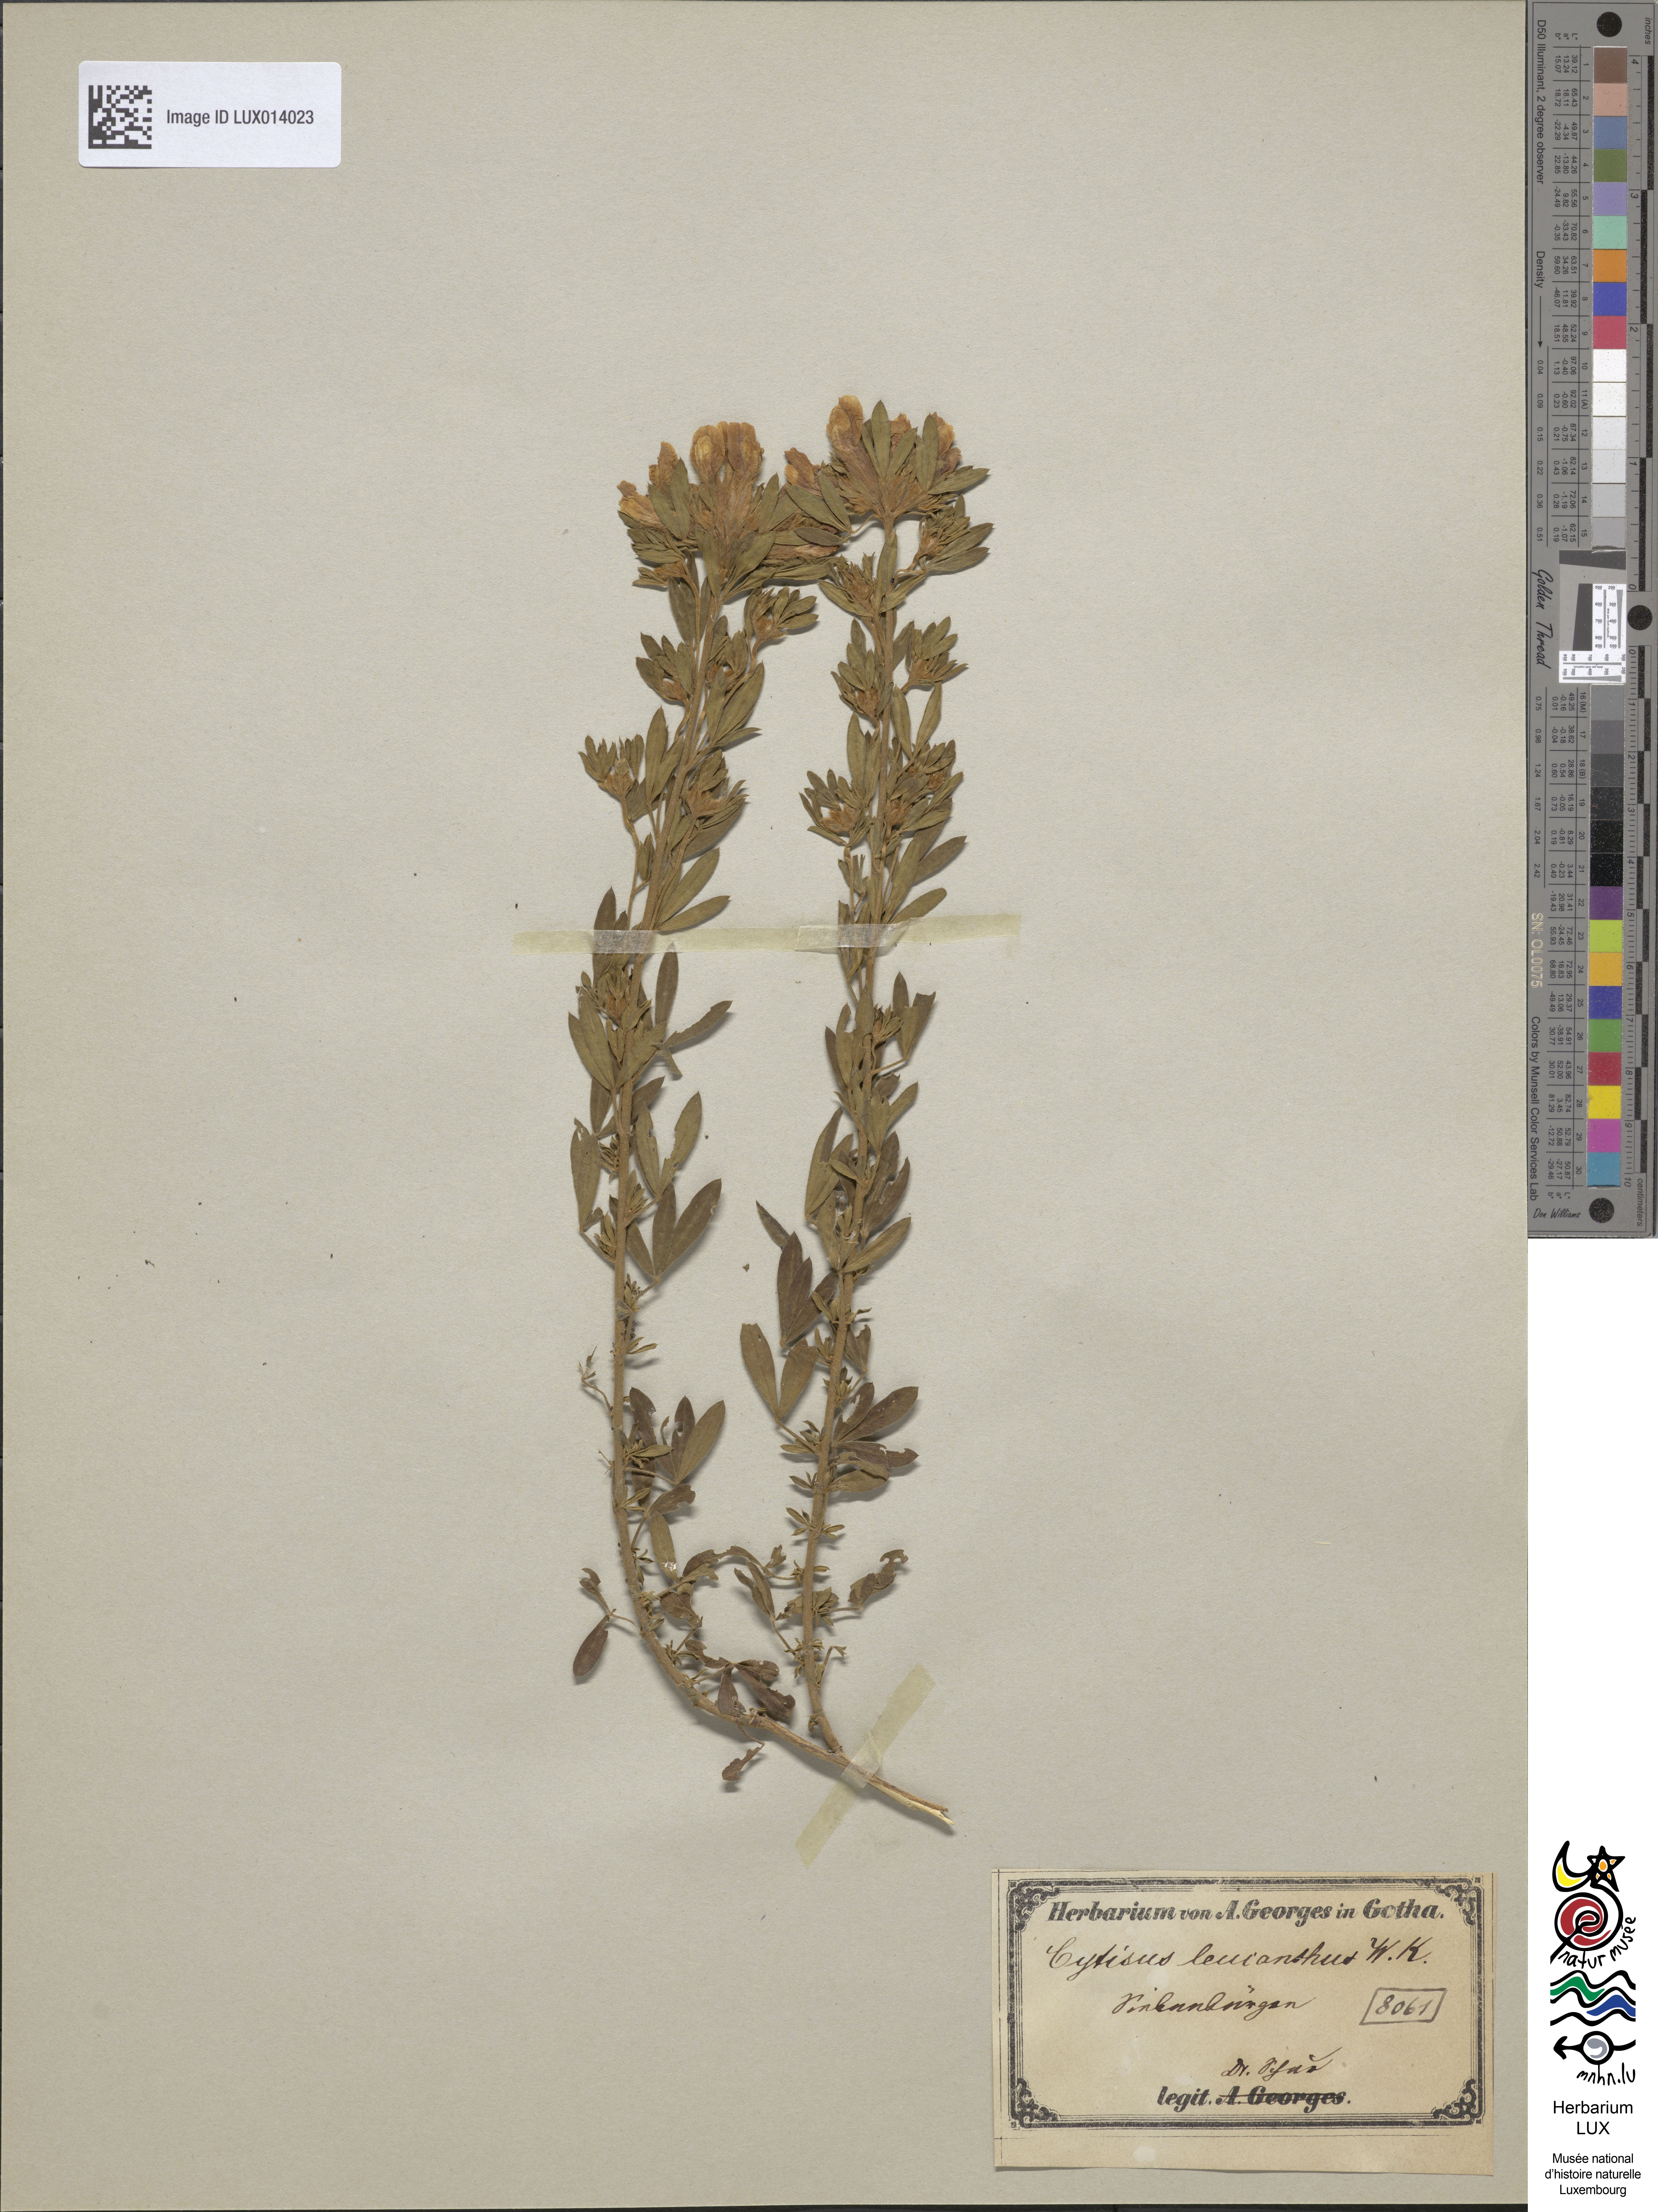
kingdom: Plantae
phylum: Tracheophyta
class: Magnoliopsida
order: Fabales
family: Fabaceae
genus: Chamaecytisus
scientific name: Chamaecytisus albus
